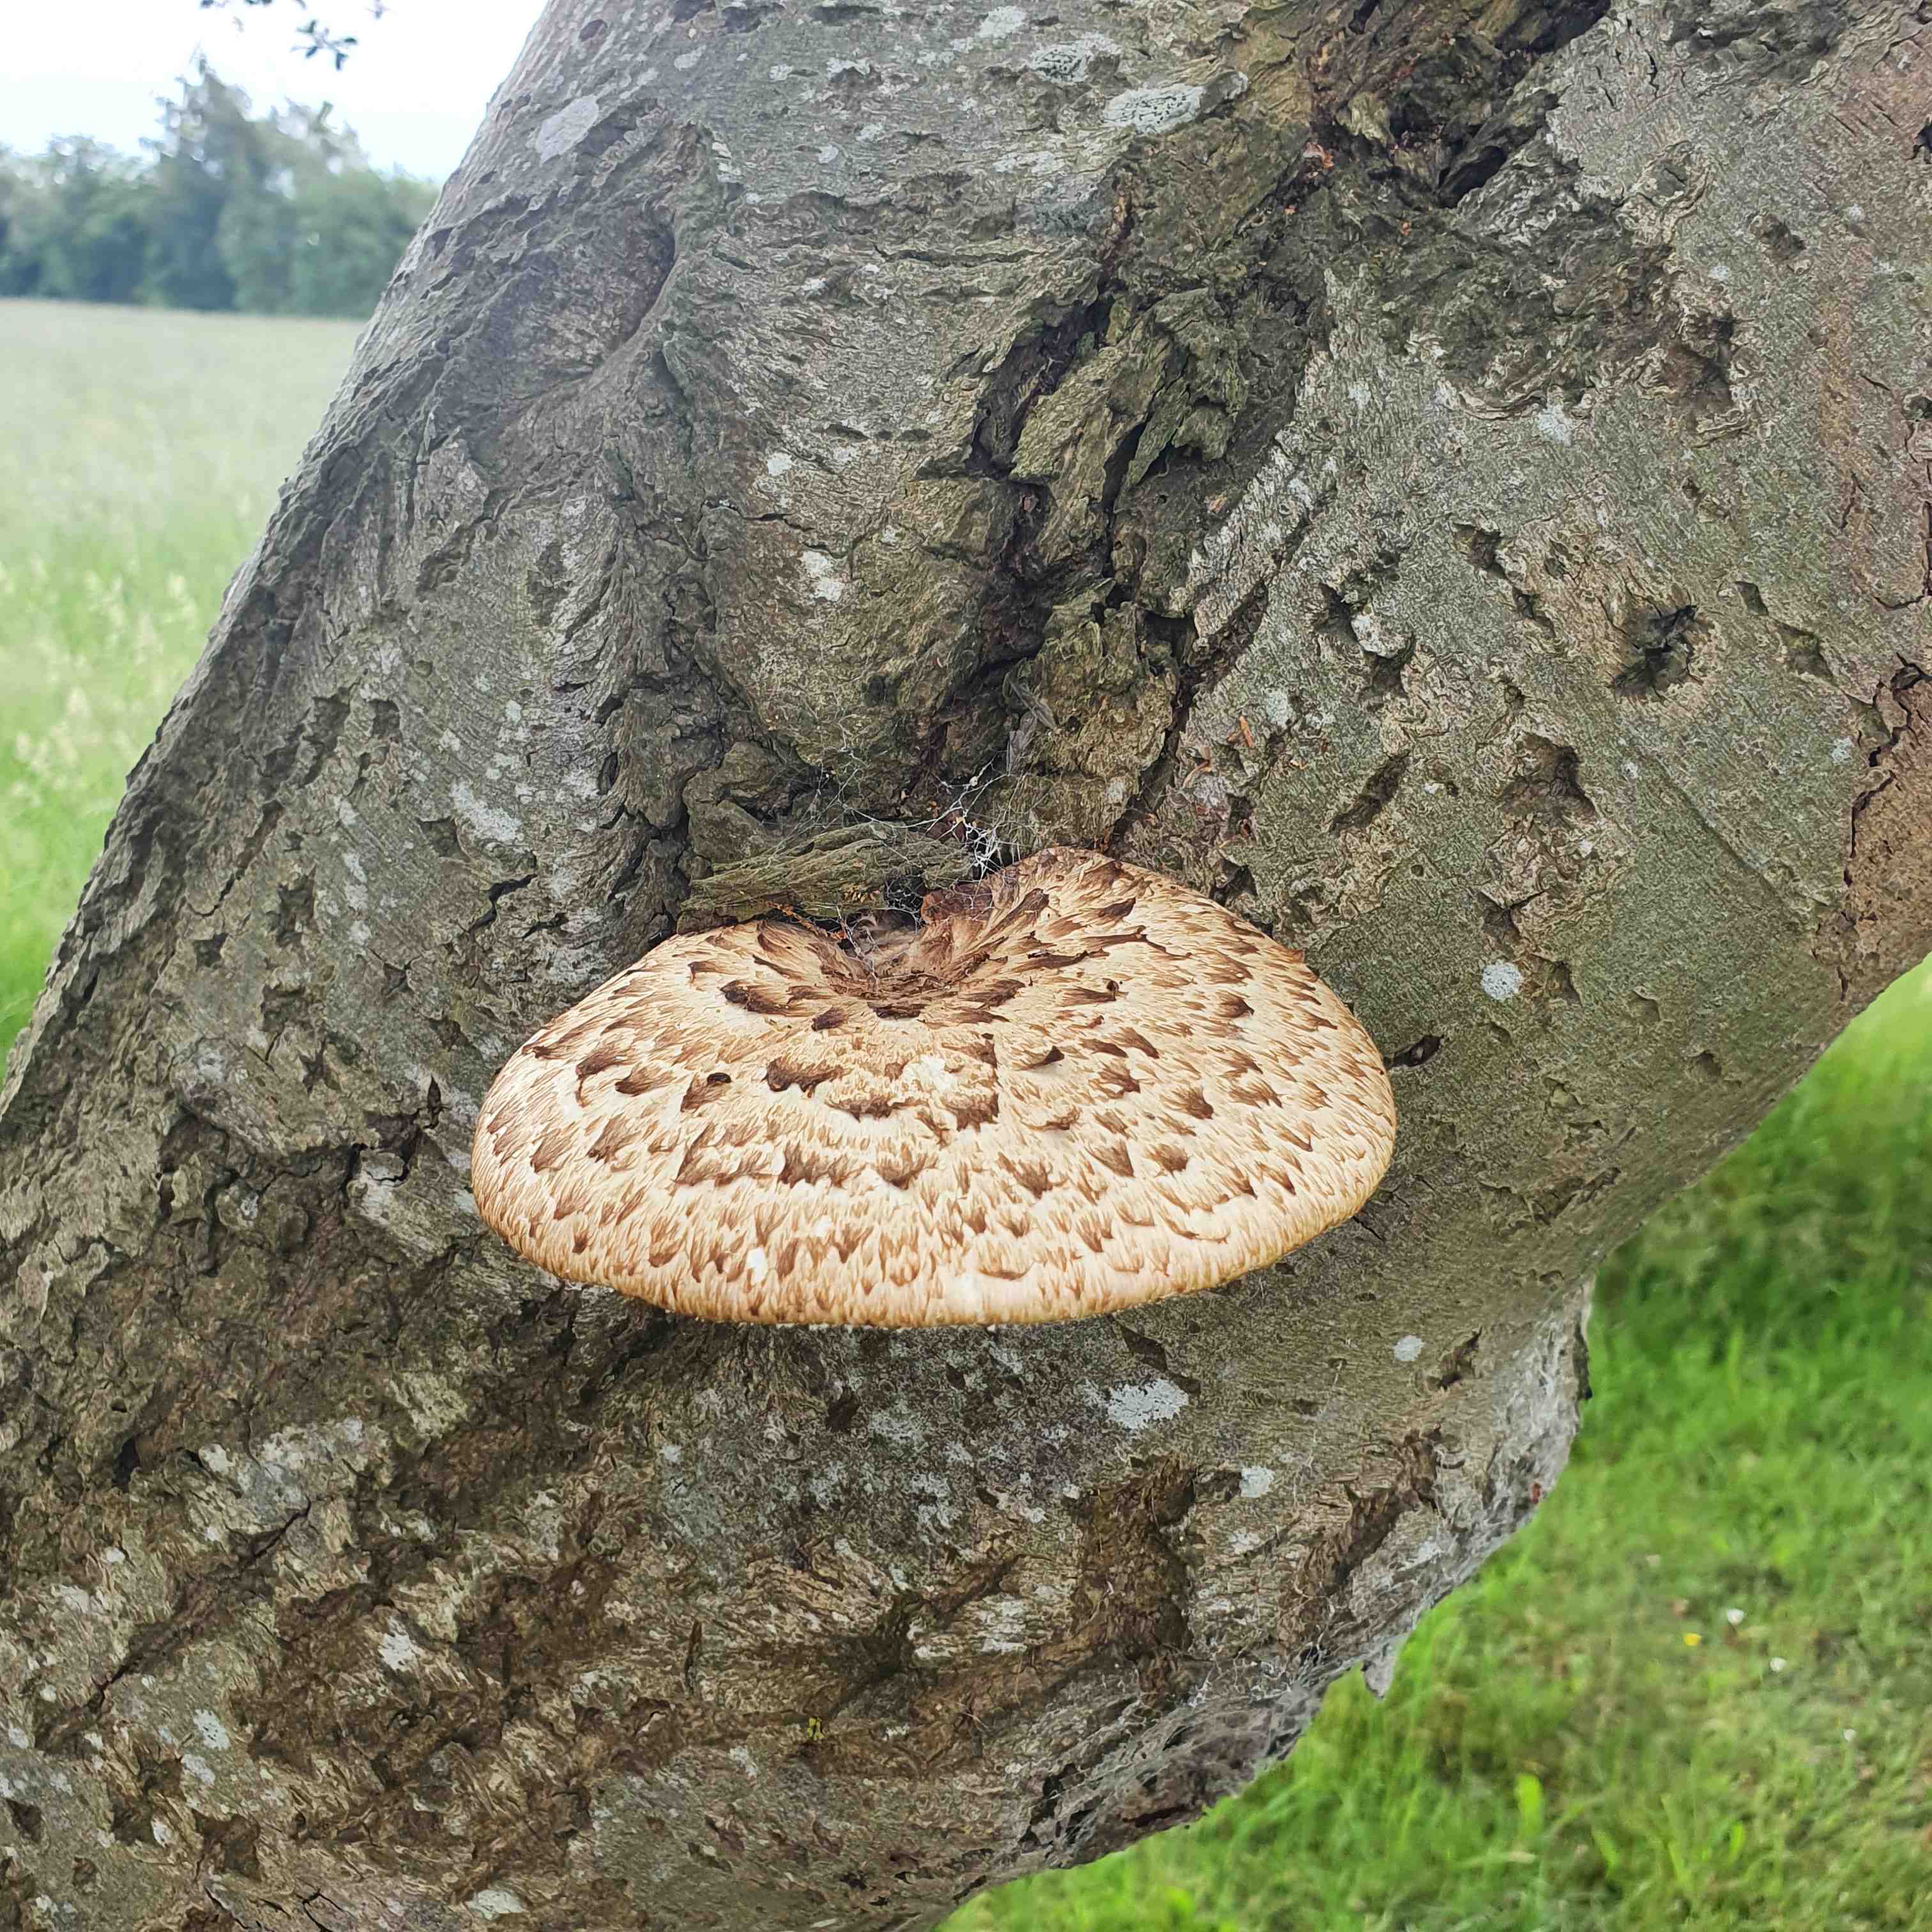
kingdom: Fungi
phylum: Basidiomycota
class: Agaricomycetes
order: Polyporales
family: Polyporaceae
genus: Cerioporus
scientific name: Cerioporus squamosus
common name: skællet stilkporesvamp
